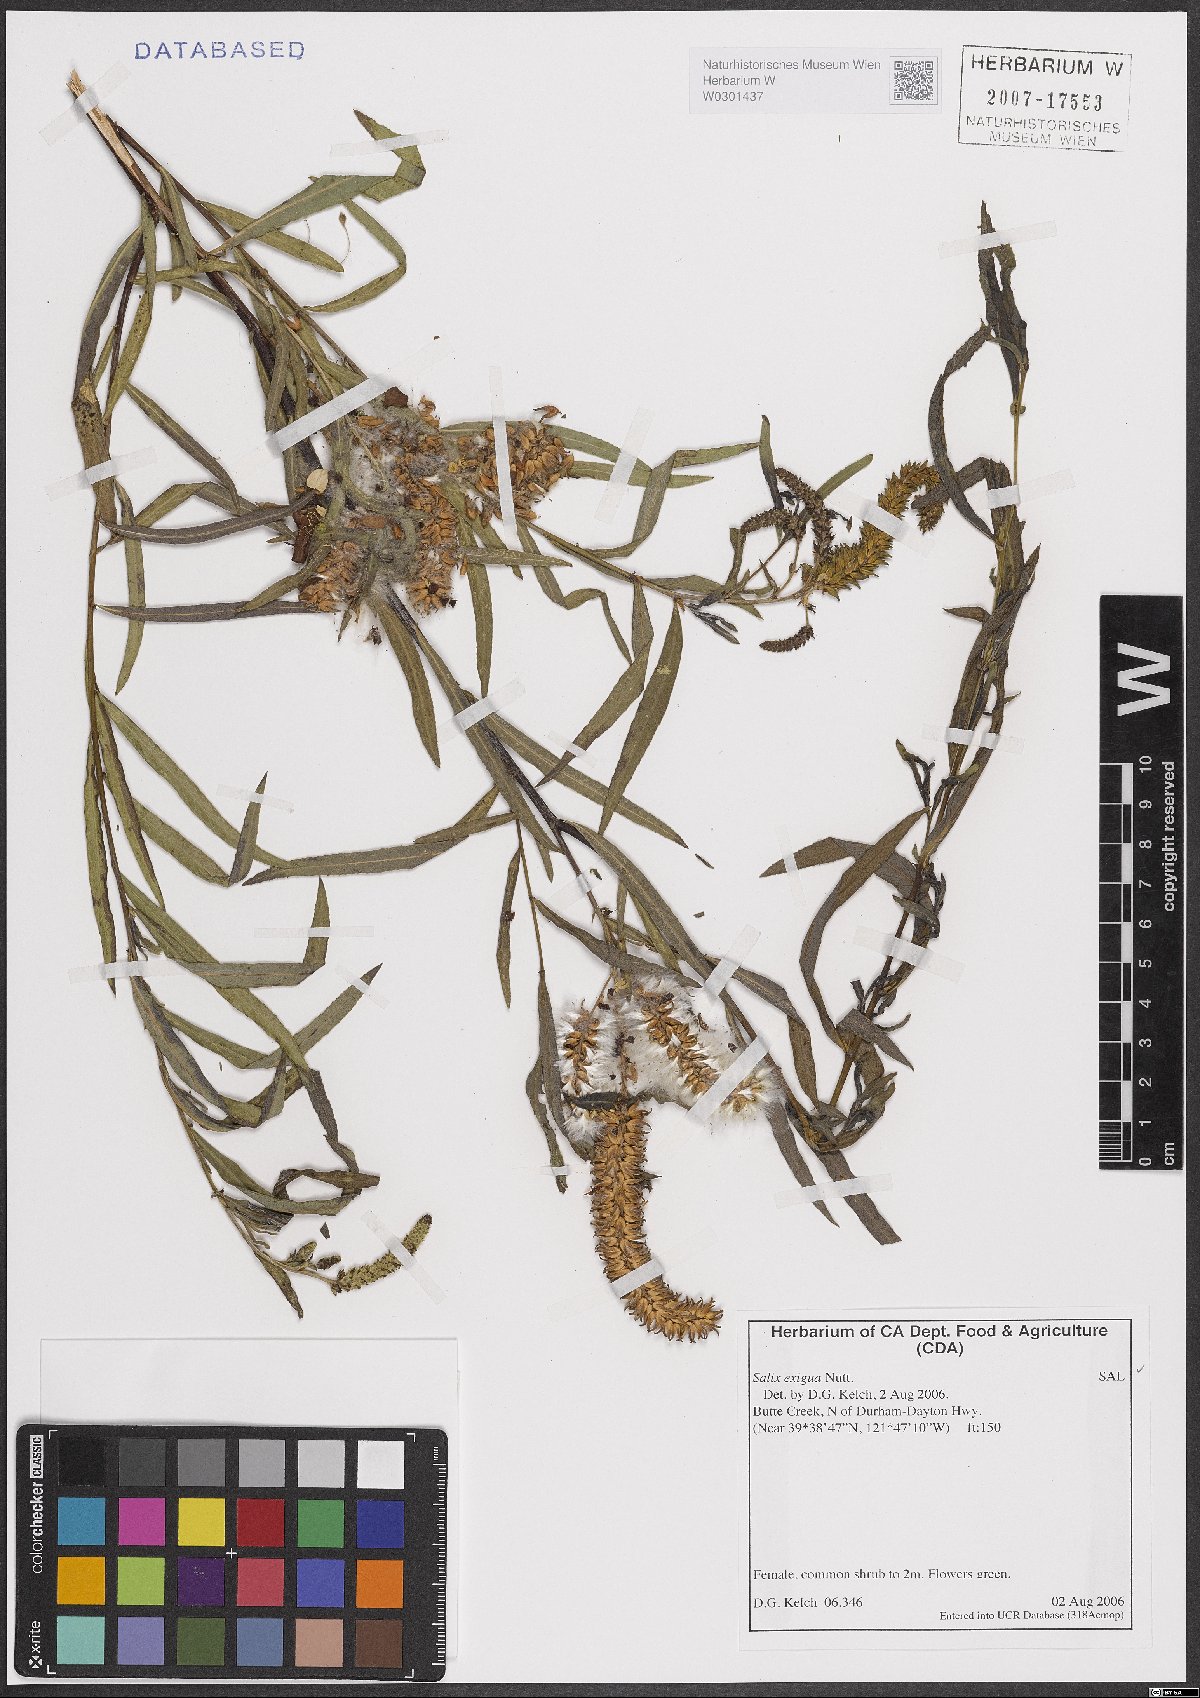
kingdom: Plantae
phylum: Tracheophyta
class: Magnoliopsida
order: Malpighiales
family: Salicaceae
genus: Salix
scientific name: Salix exigua
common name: Coyote willow
